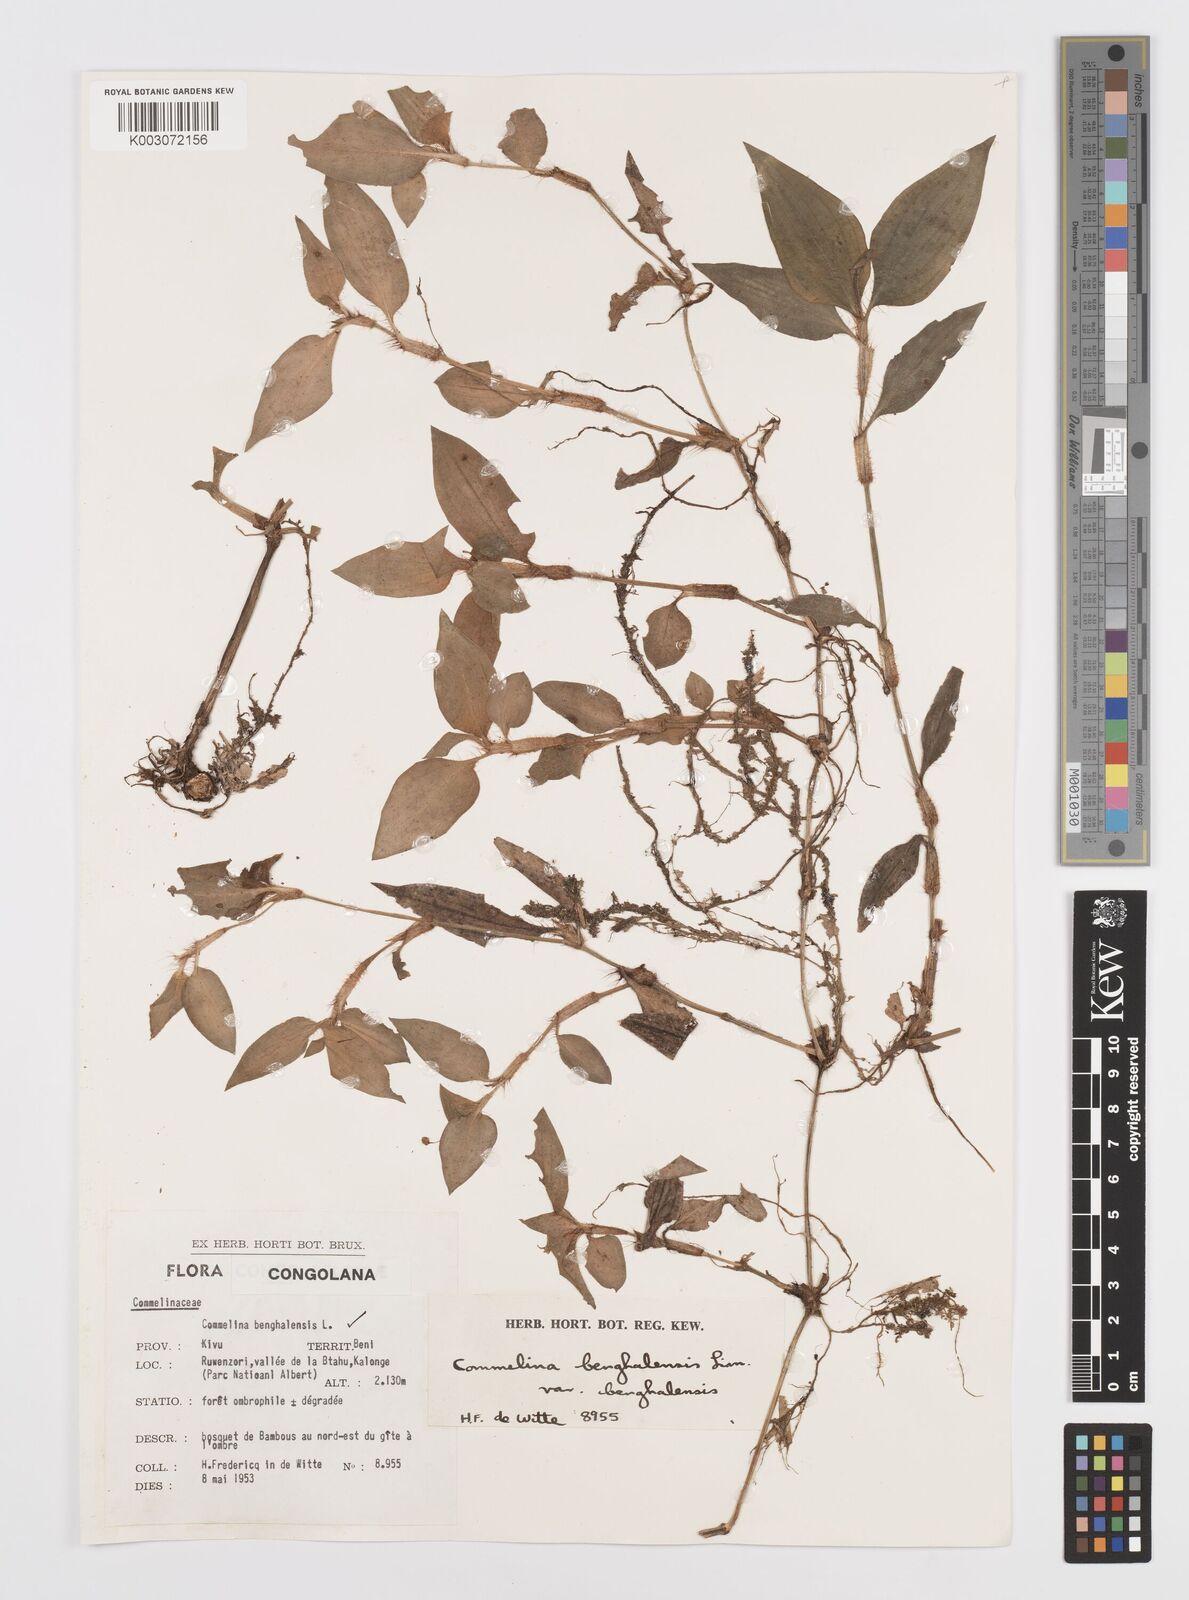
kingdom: Plantae
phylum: Tracheophyta
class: Liliopsida
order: Commelinales
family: Commelinaceae
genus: Commelina
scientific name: Commelina benghalensis
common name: Jio
